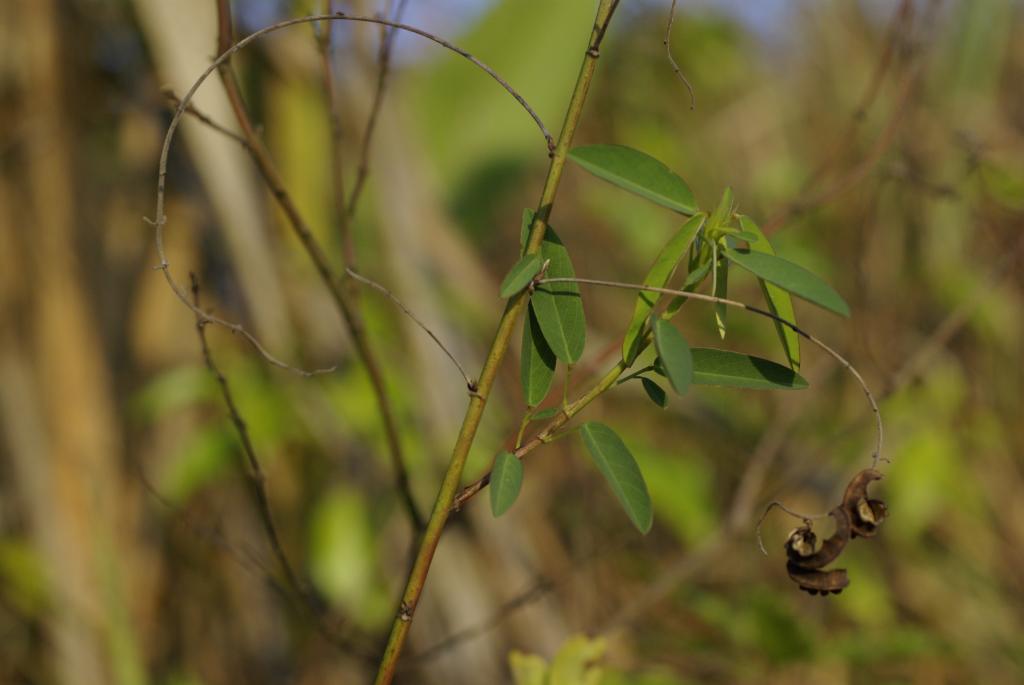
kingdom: Plantae
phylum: Tracheophyta
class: Magnoliopsida
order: Fabales
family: Fabaceae
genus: Codariocalyx
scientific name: Codariocalyx motorius
